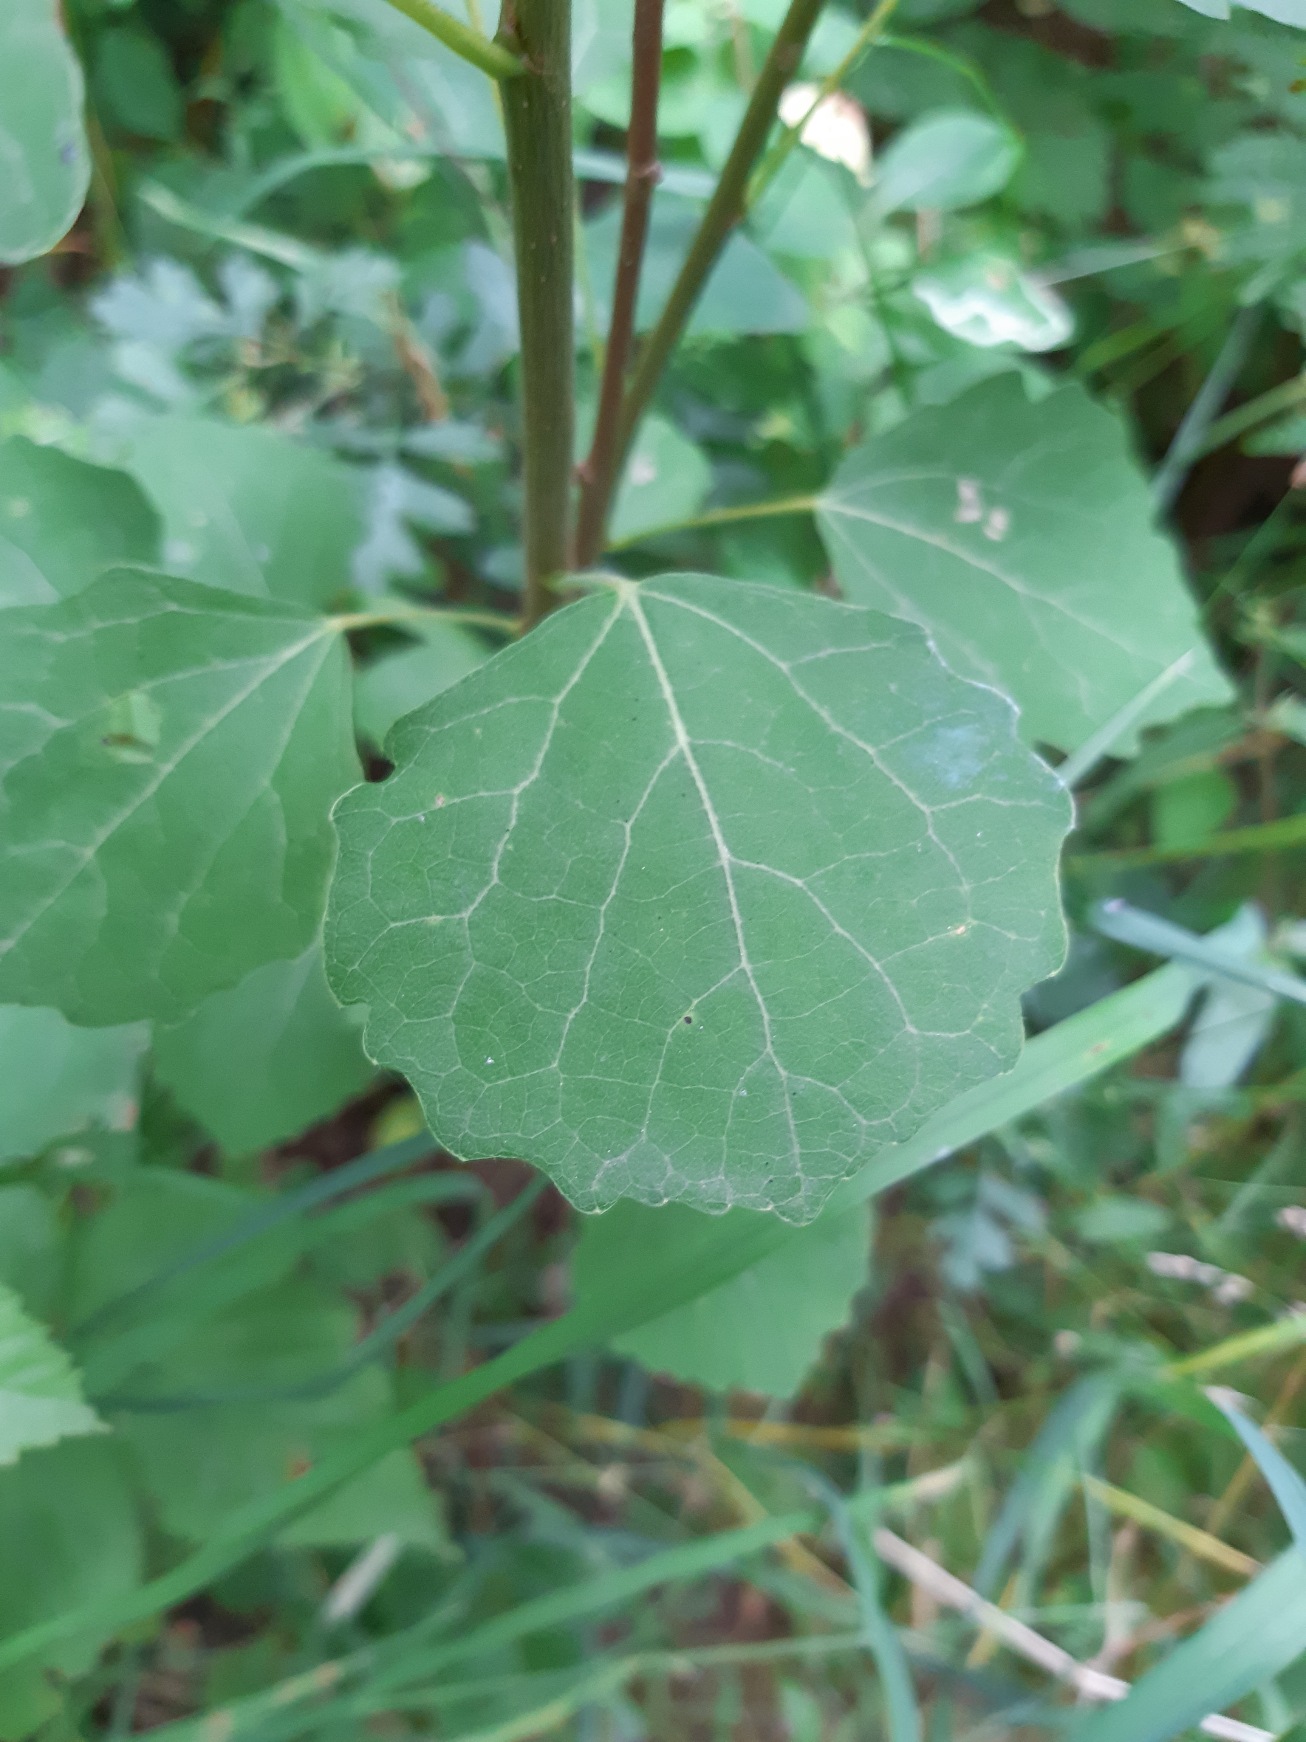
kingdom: Plantae
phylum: Tracheophyta
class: Magnoliopsida
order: Malpighiales
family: Salicaceae
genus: Populus
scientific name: Populus tremula
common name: Bævreasp
